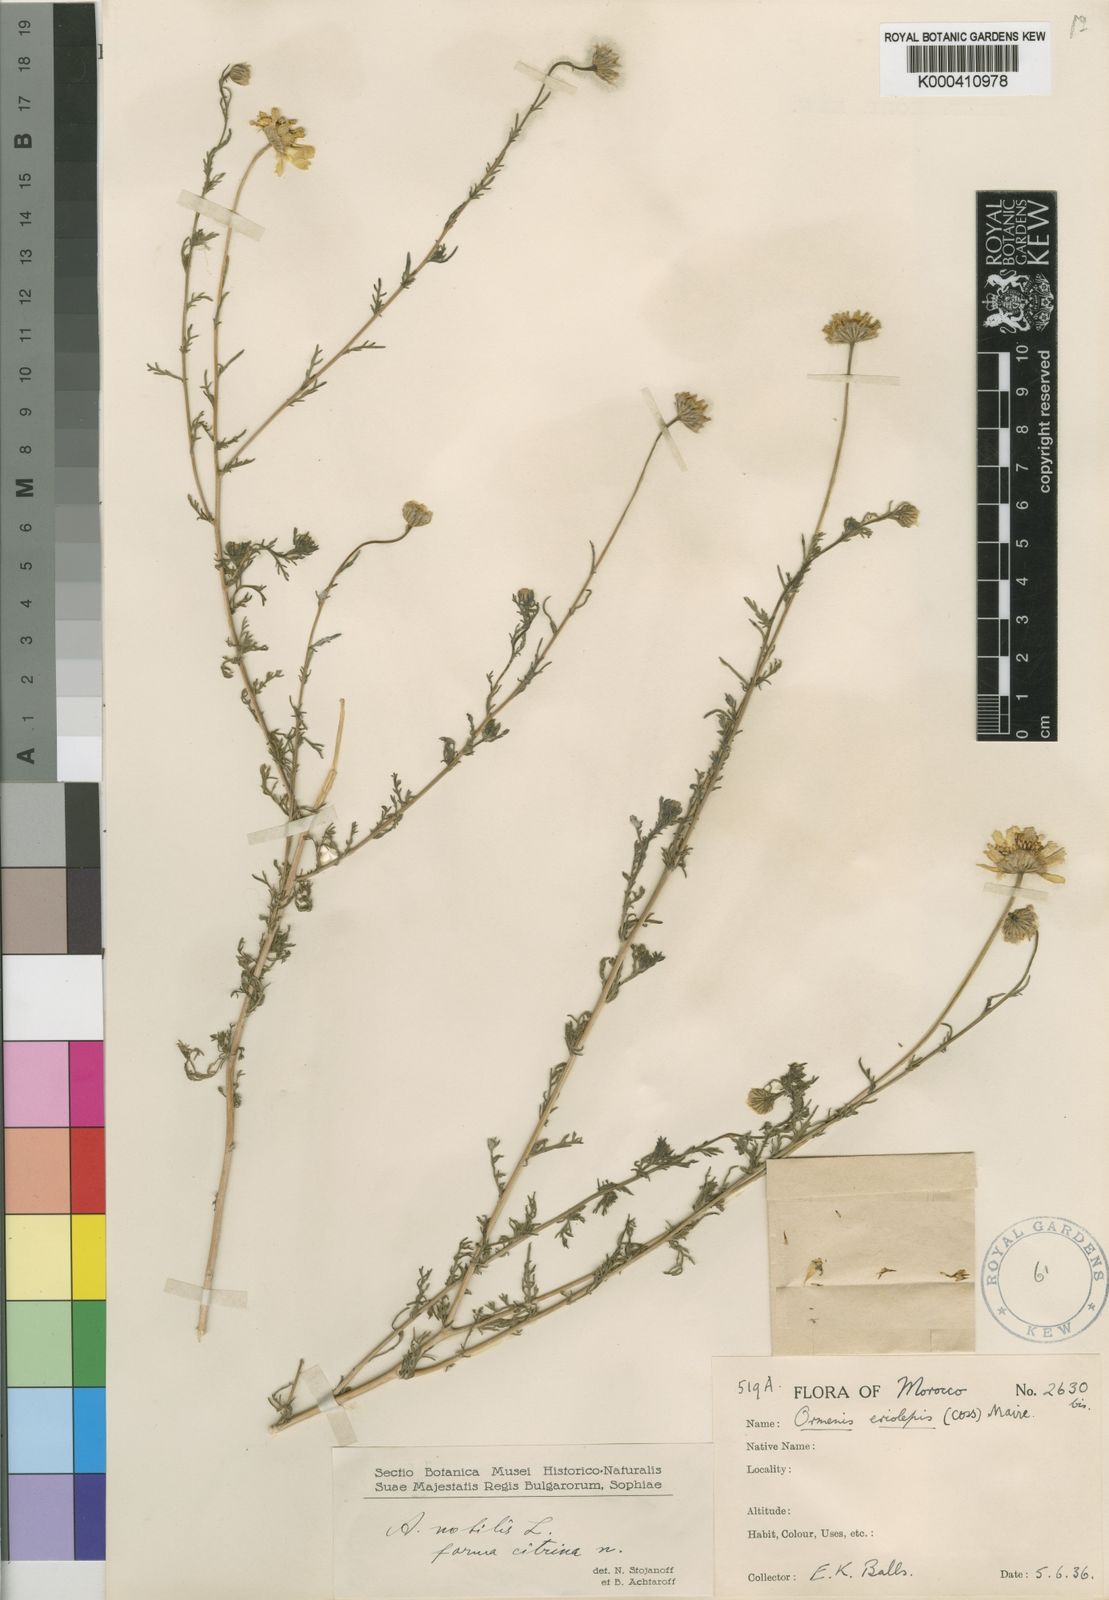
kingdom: Plantae
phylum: Tracheophyta
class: Magnoliopsida
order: Asterales
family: Asteraceae
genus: Chamaemelum
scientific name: Chamaemelum
